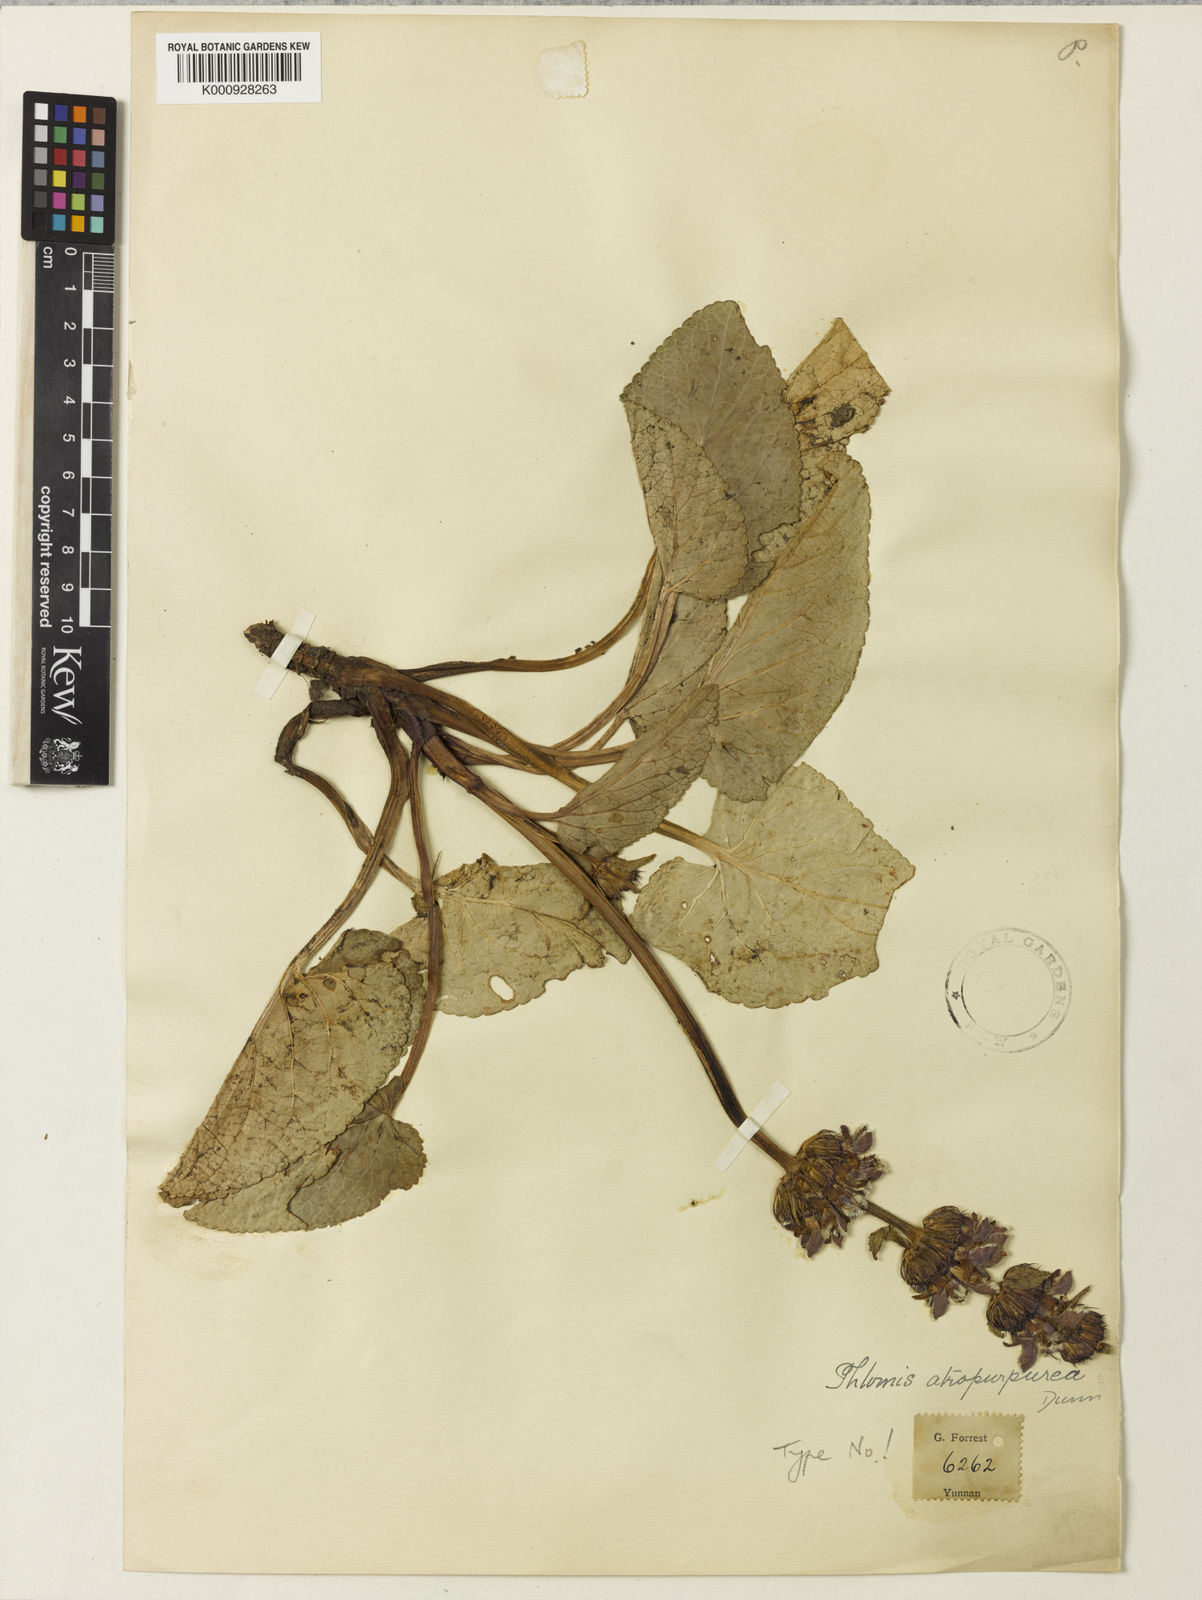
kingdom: Plantae
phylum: Tracheophyta
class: Magnoliopsida
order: Lamiales
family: Lamiaceae
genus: Phlomoides
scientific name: Phlomoides atropurpurea
